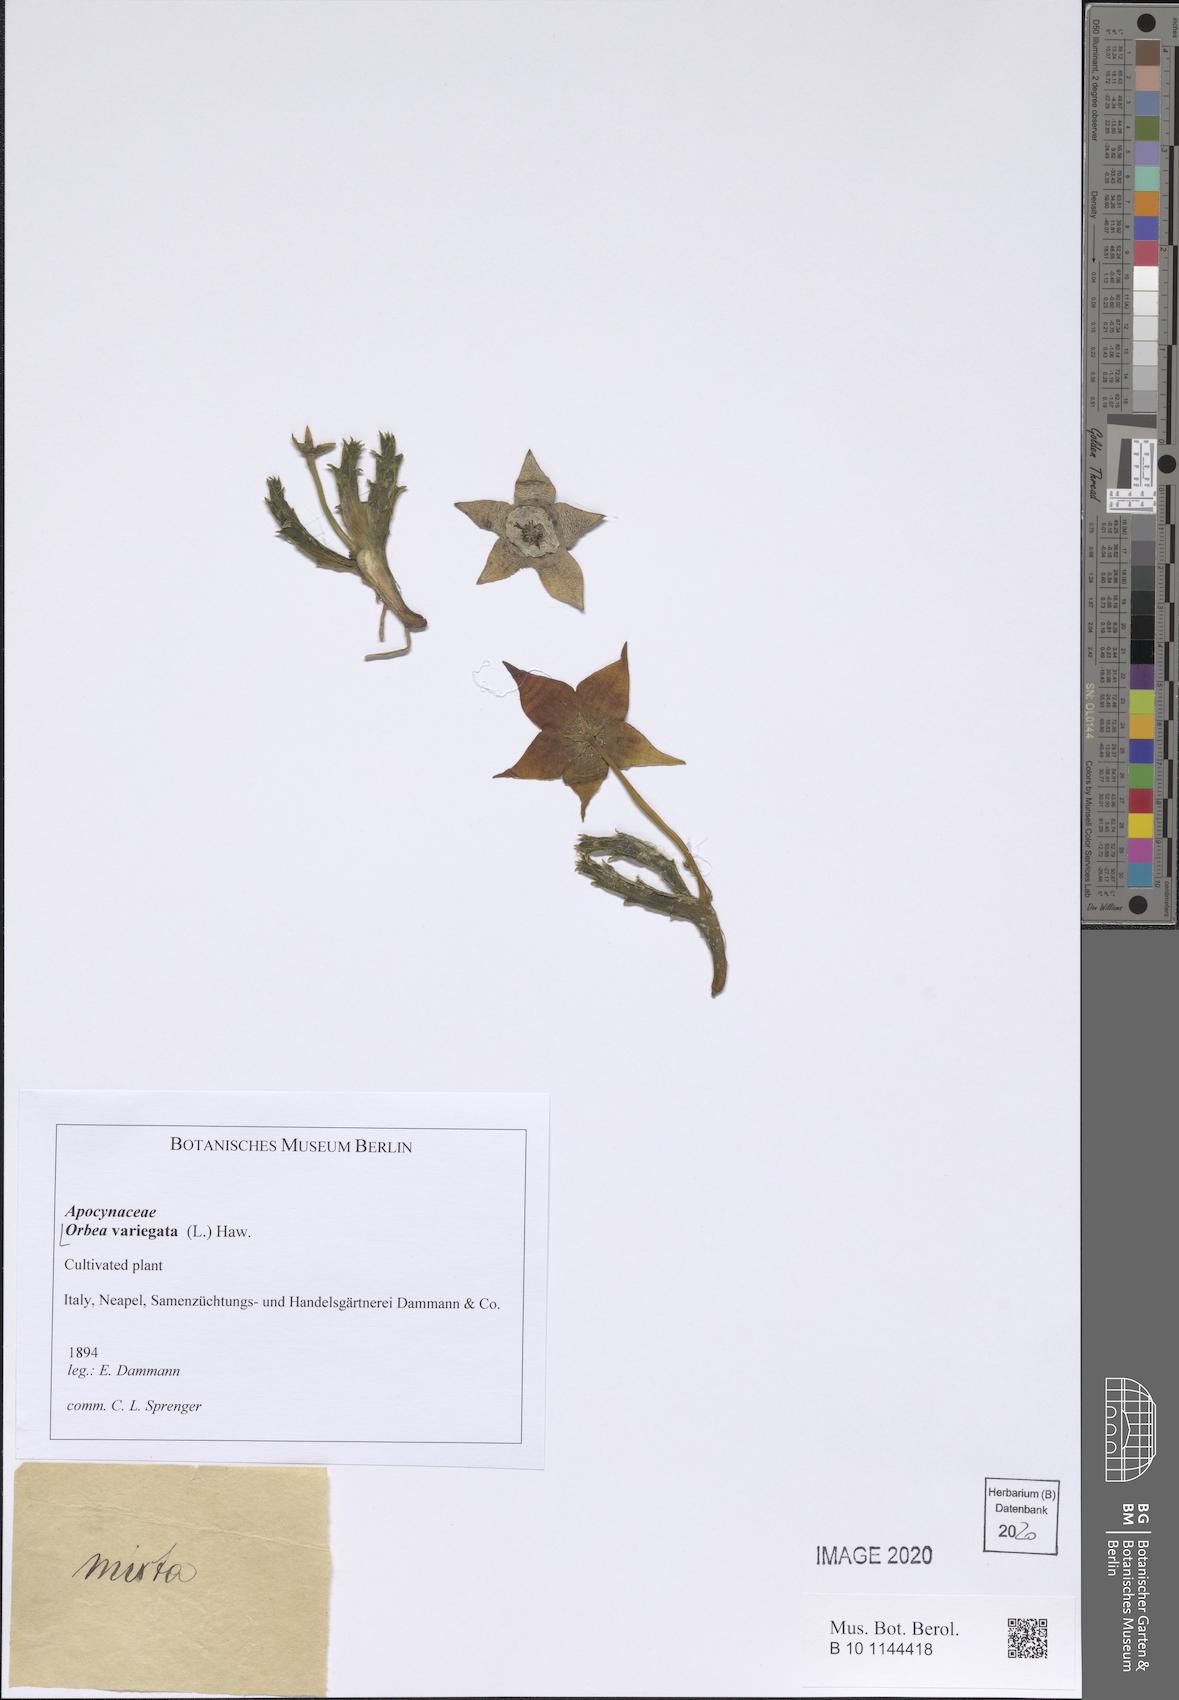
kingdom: Plantae
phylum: Tracheophyta
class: Magnoliopsida
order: Gentianales
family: Apocynaceae
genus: Ceropegia
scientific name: Ceropegia mixta
